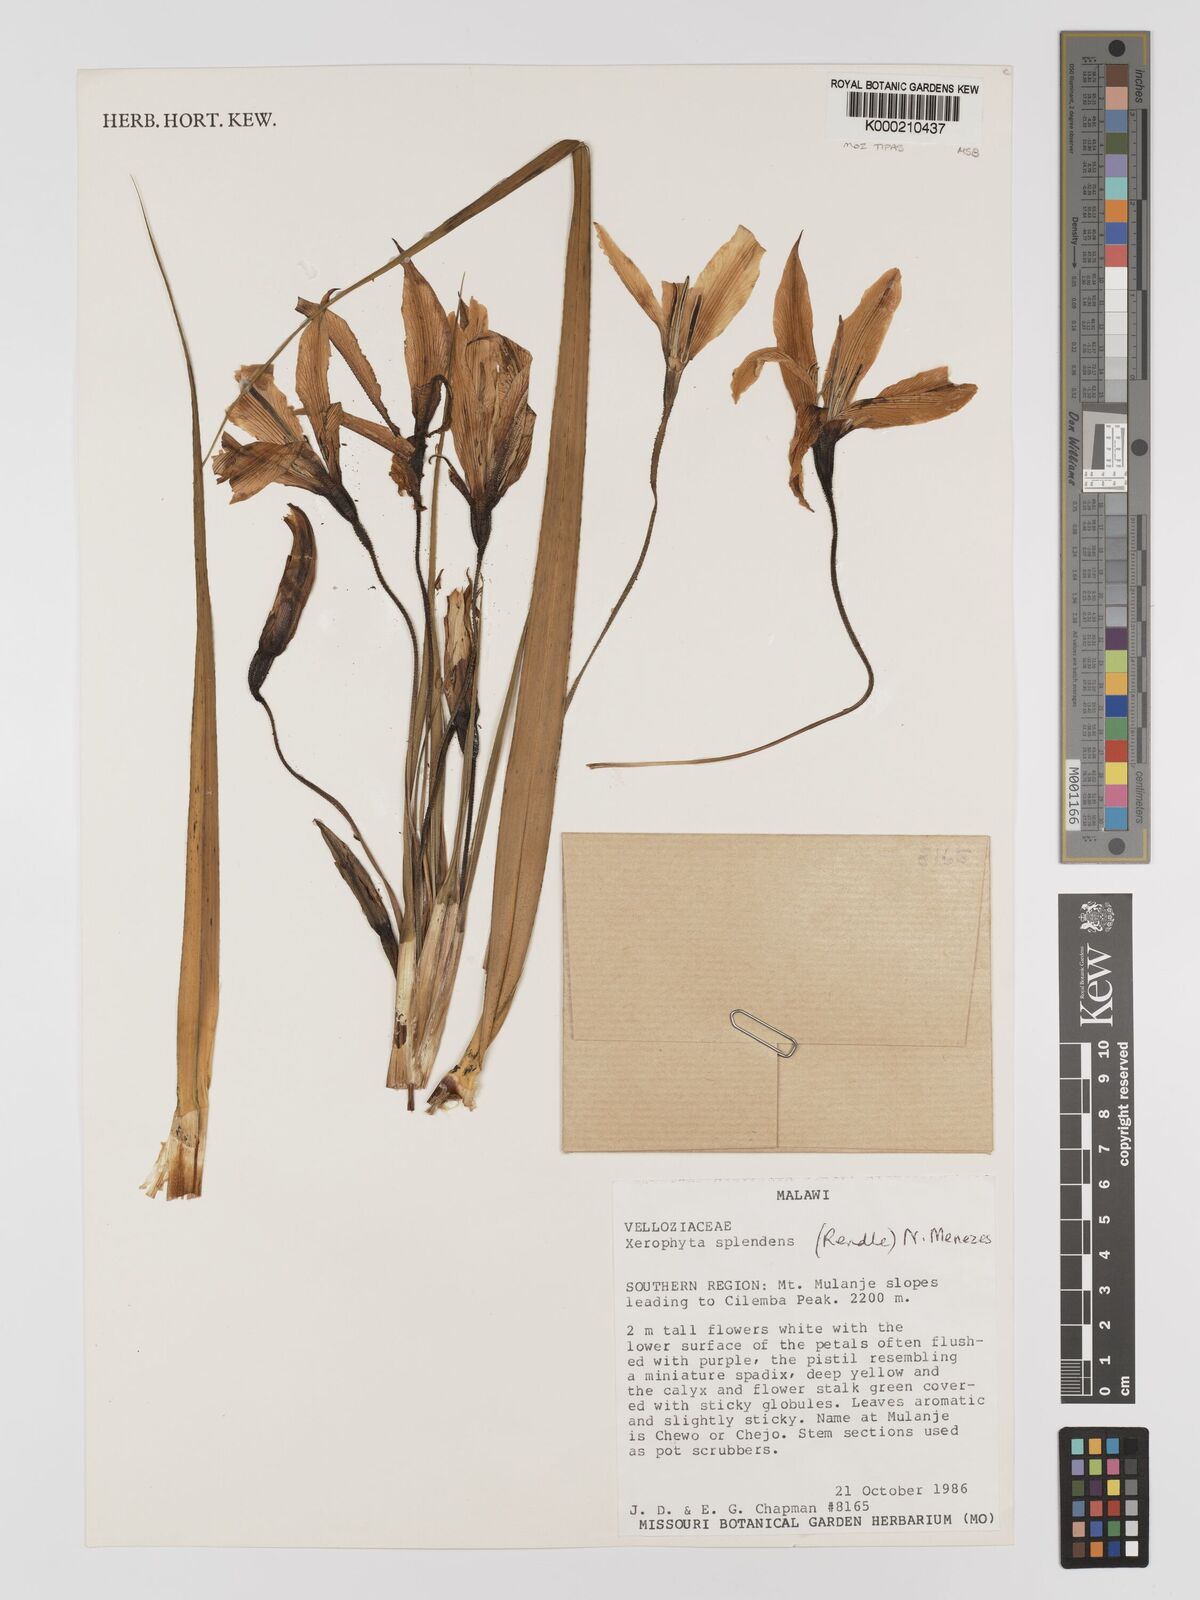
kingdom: Plantae
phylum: Tracheophyta
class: Liliopsida
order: Pandanales
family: Velloziaceae
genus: Xerophyta
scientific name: Xerophyta splendens
